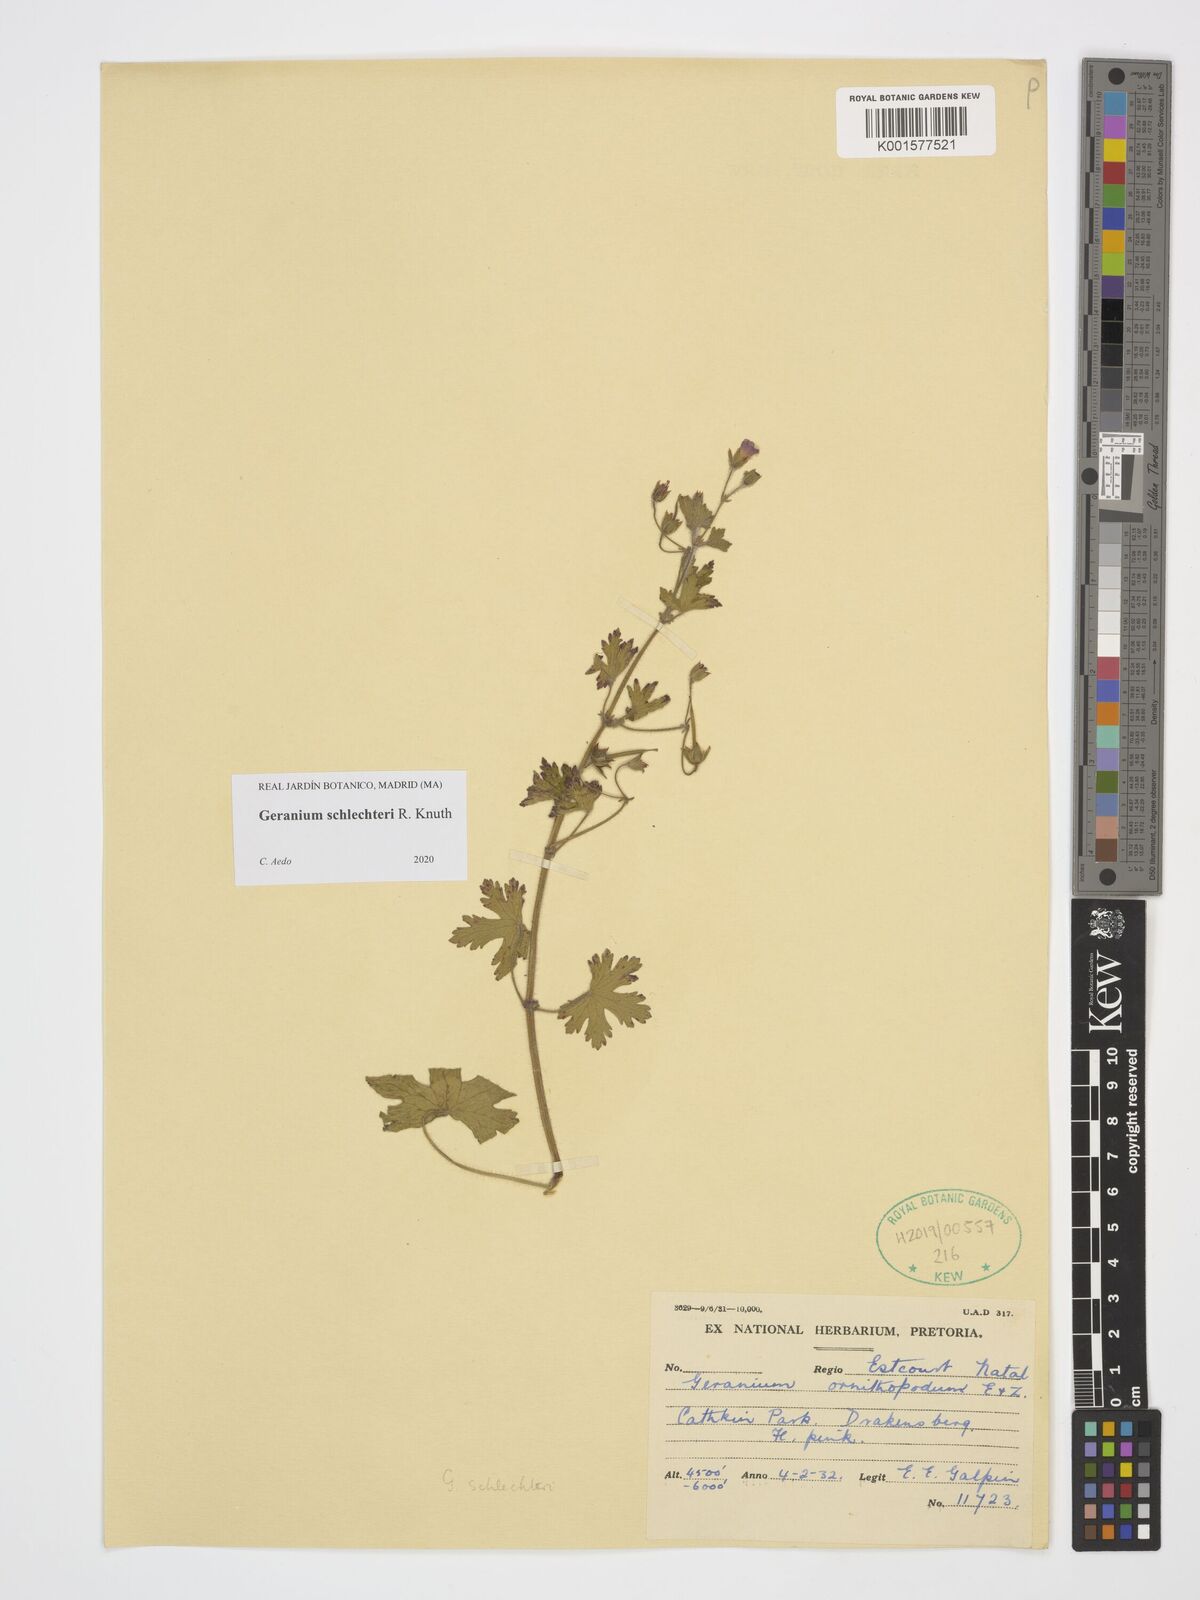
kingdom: Plantae
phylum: Tracheophyta
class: Magnoliopsida
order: Geraniales
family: Geraniaceae
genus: Geranium
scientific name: Geranium schlechteri
